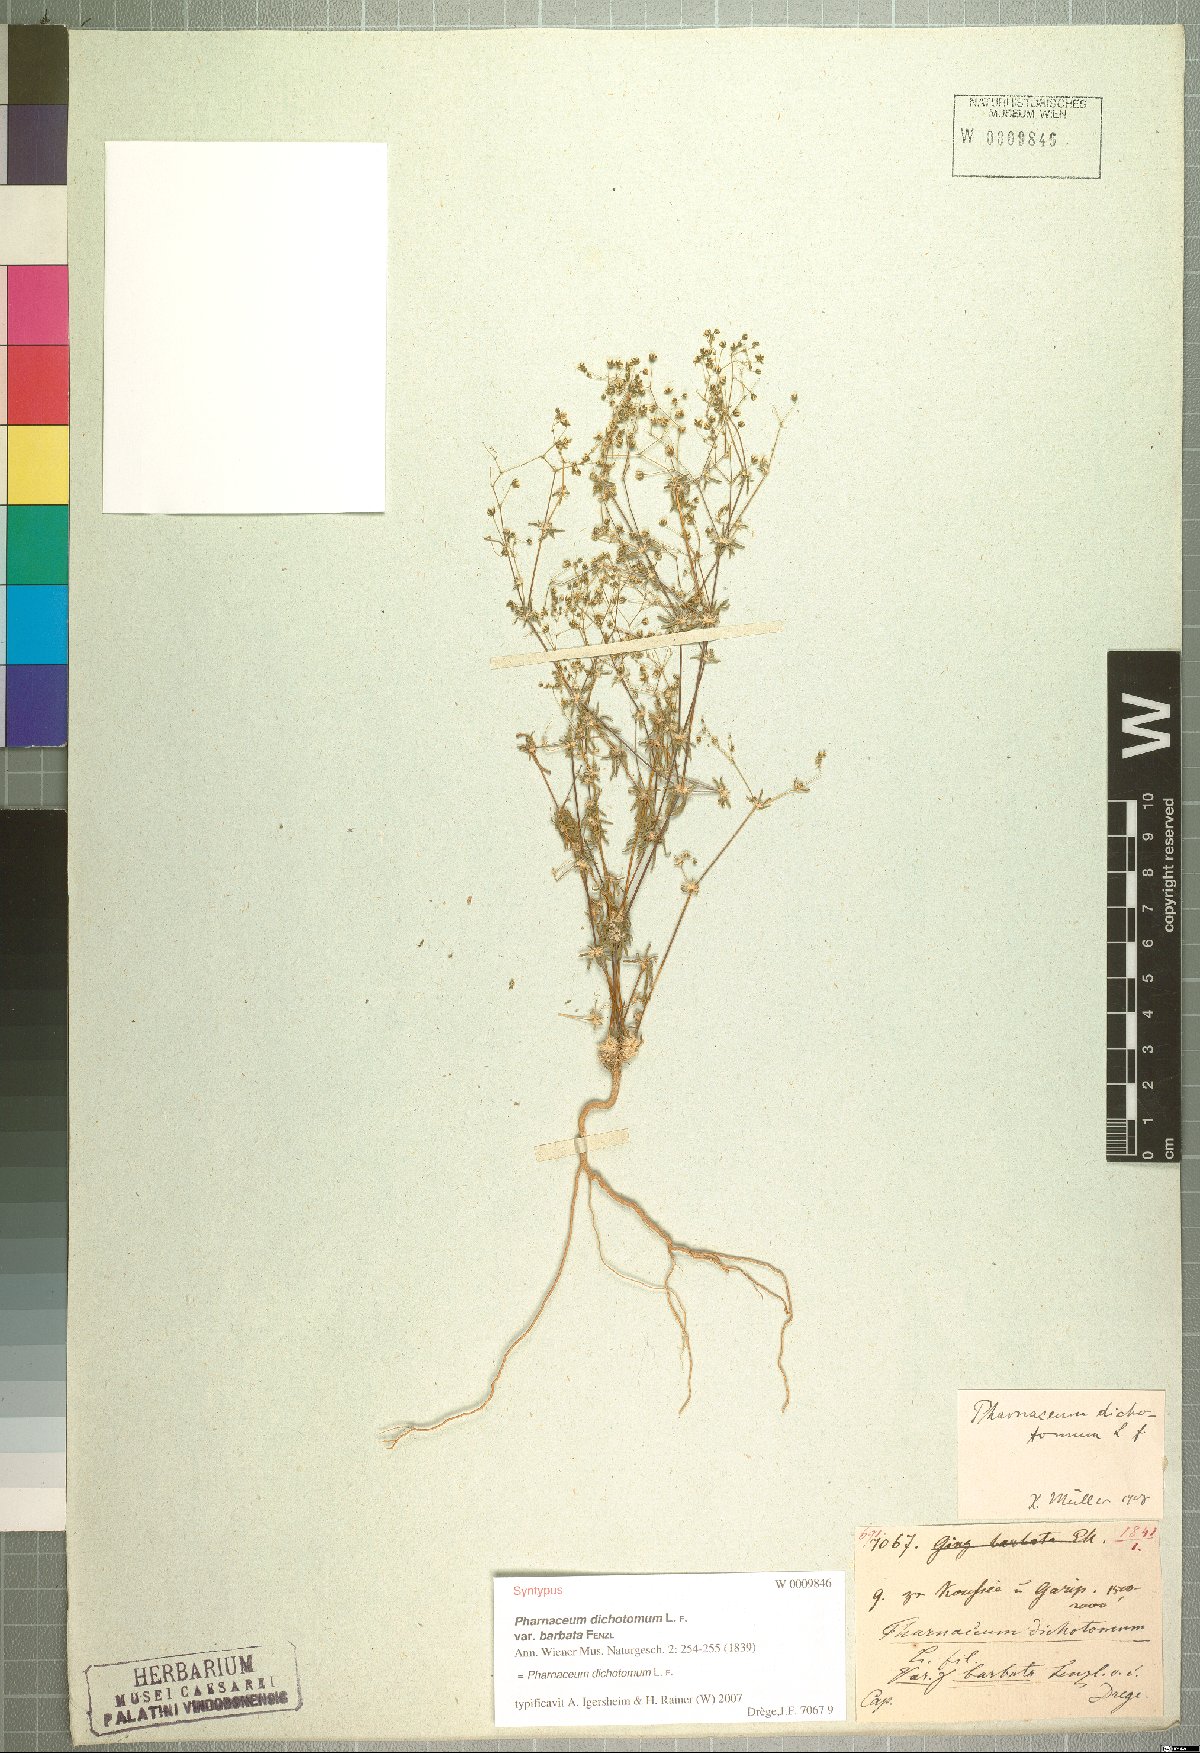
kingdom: Plantae
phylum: Tracheophyta
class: Magnoliopsida
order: Caryophyllales
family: Molluginaceae
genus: Pharnaceum
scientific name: Pharnaceum dichotomum
